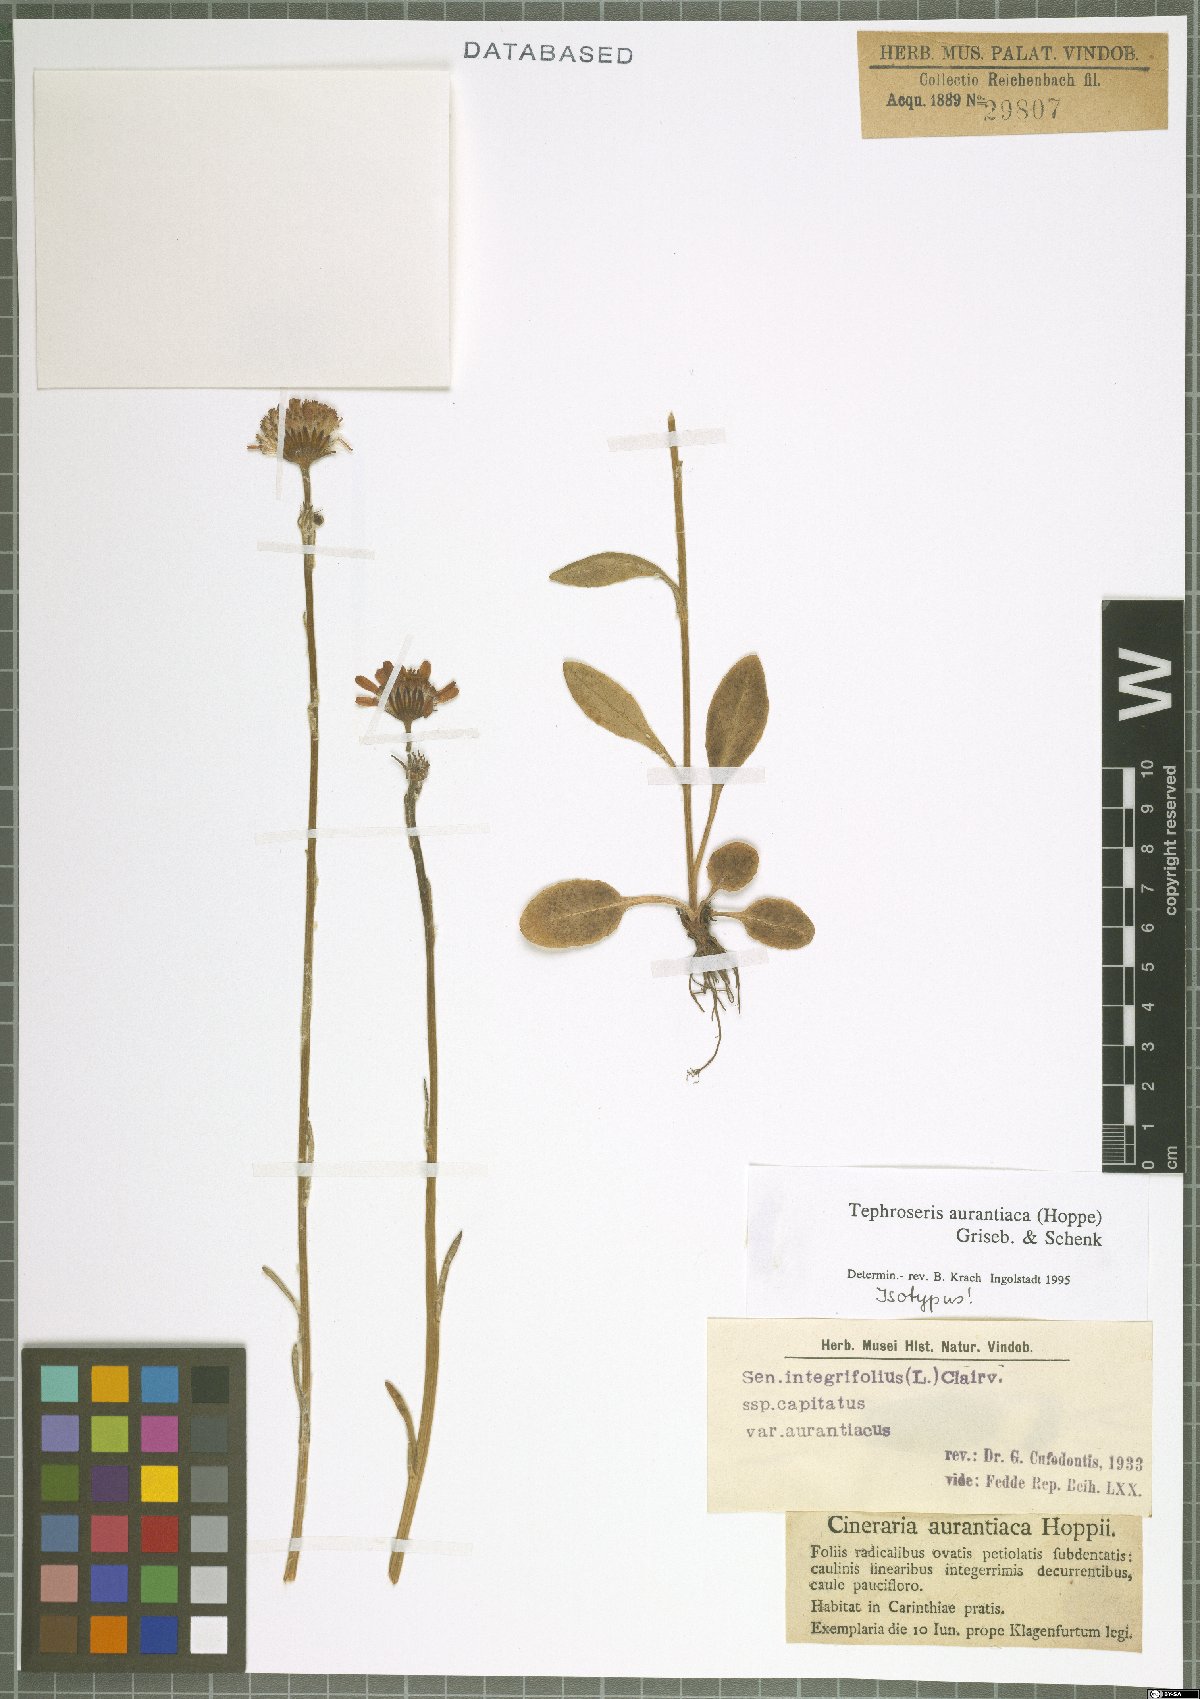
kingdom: Plantae
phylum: Tracheophyta
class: Magnoliopsida
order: Asterales
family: Asteraceae
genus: Tephroseris
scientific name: Tephroseris aurantiaca
